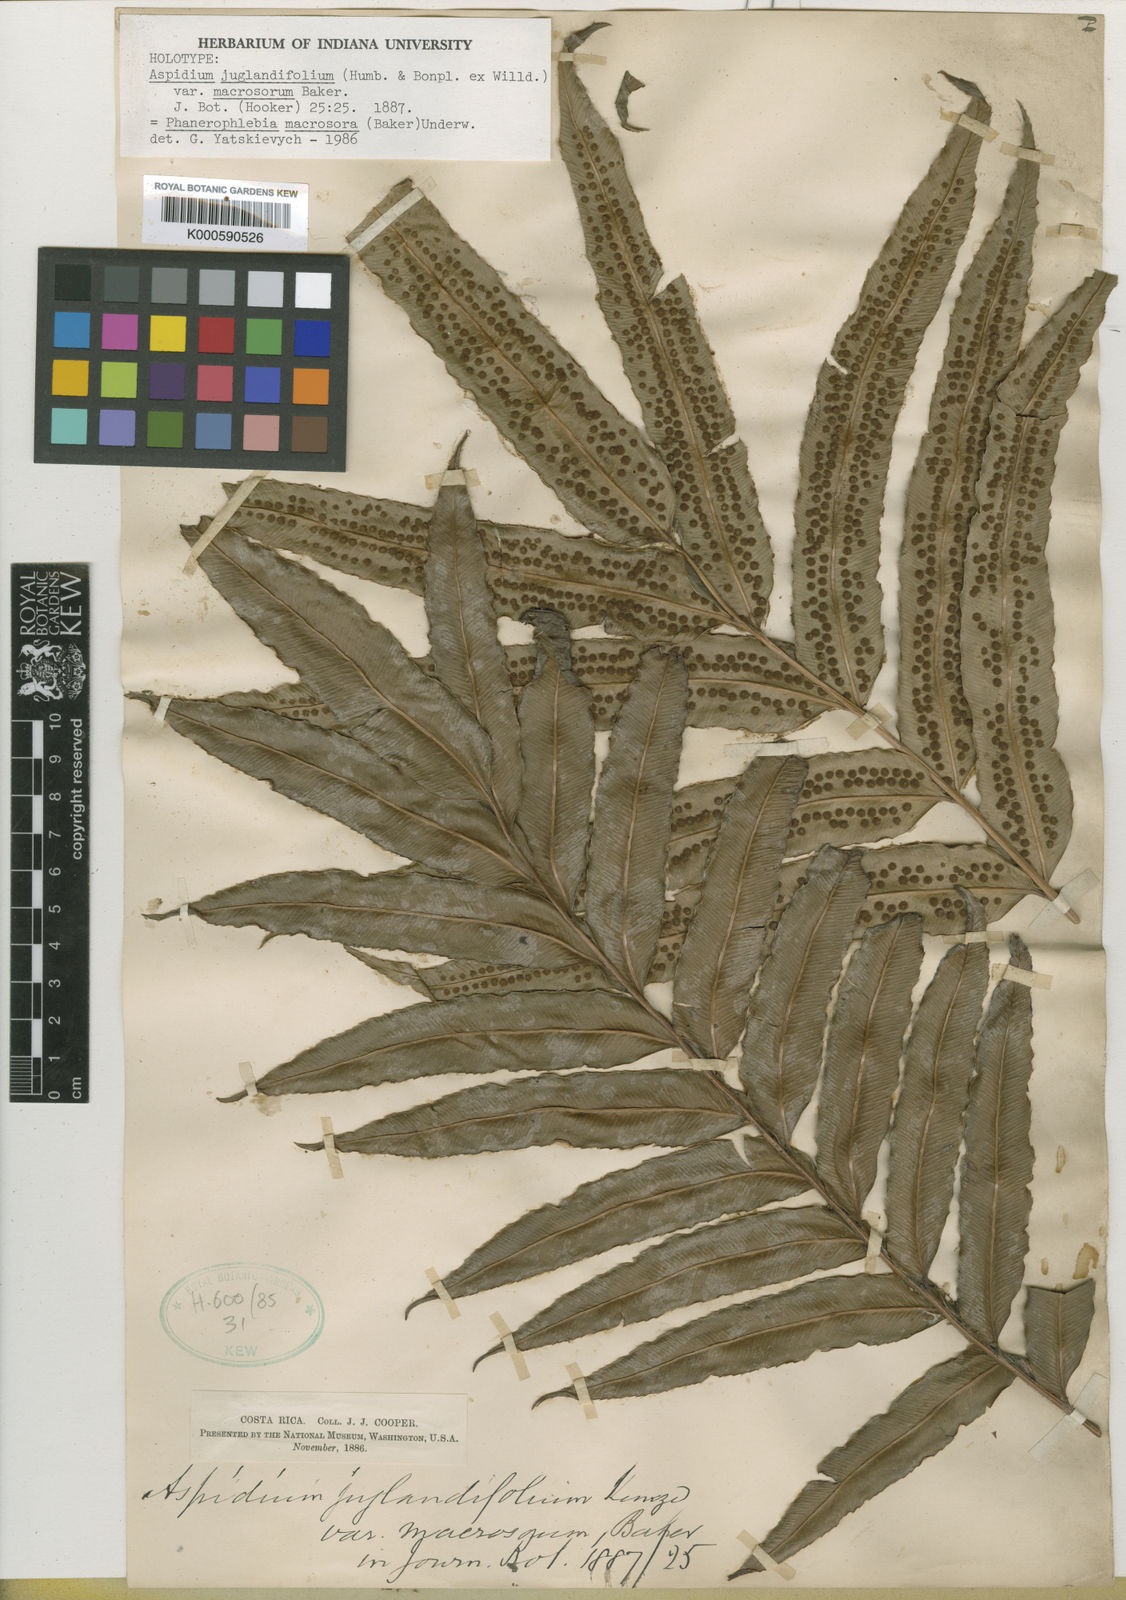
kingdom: Plantae
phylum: Tracheophyta
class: Polypodiopsida
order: Polypodiales
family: Dryopteridaceae
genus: Phanerophlebia
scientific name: Phanerophlebia macrosora
